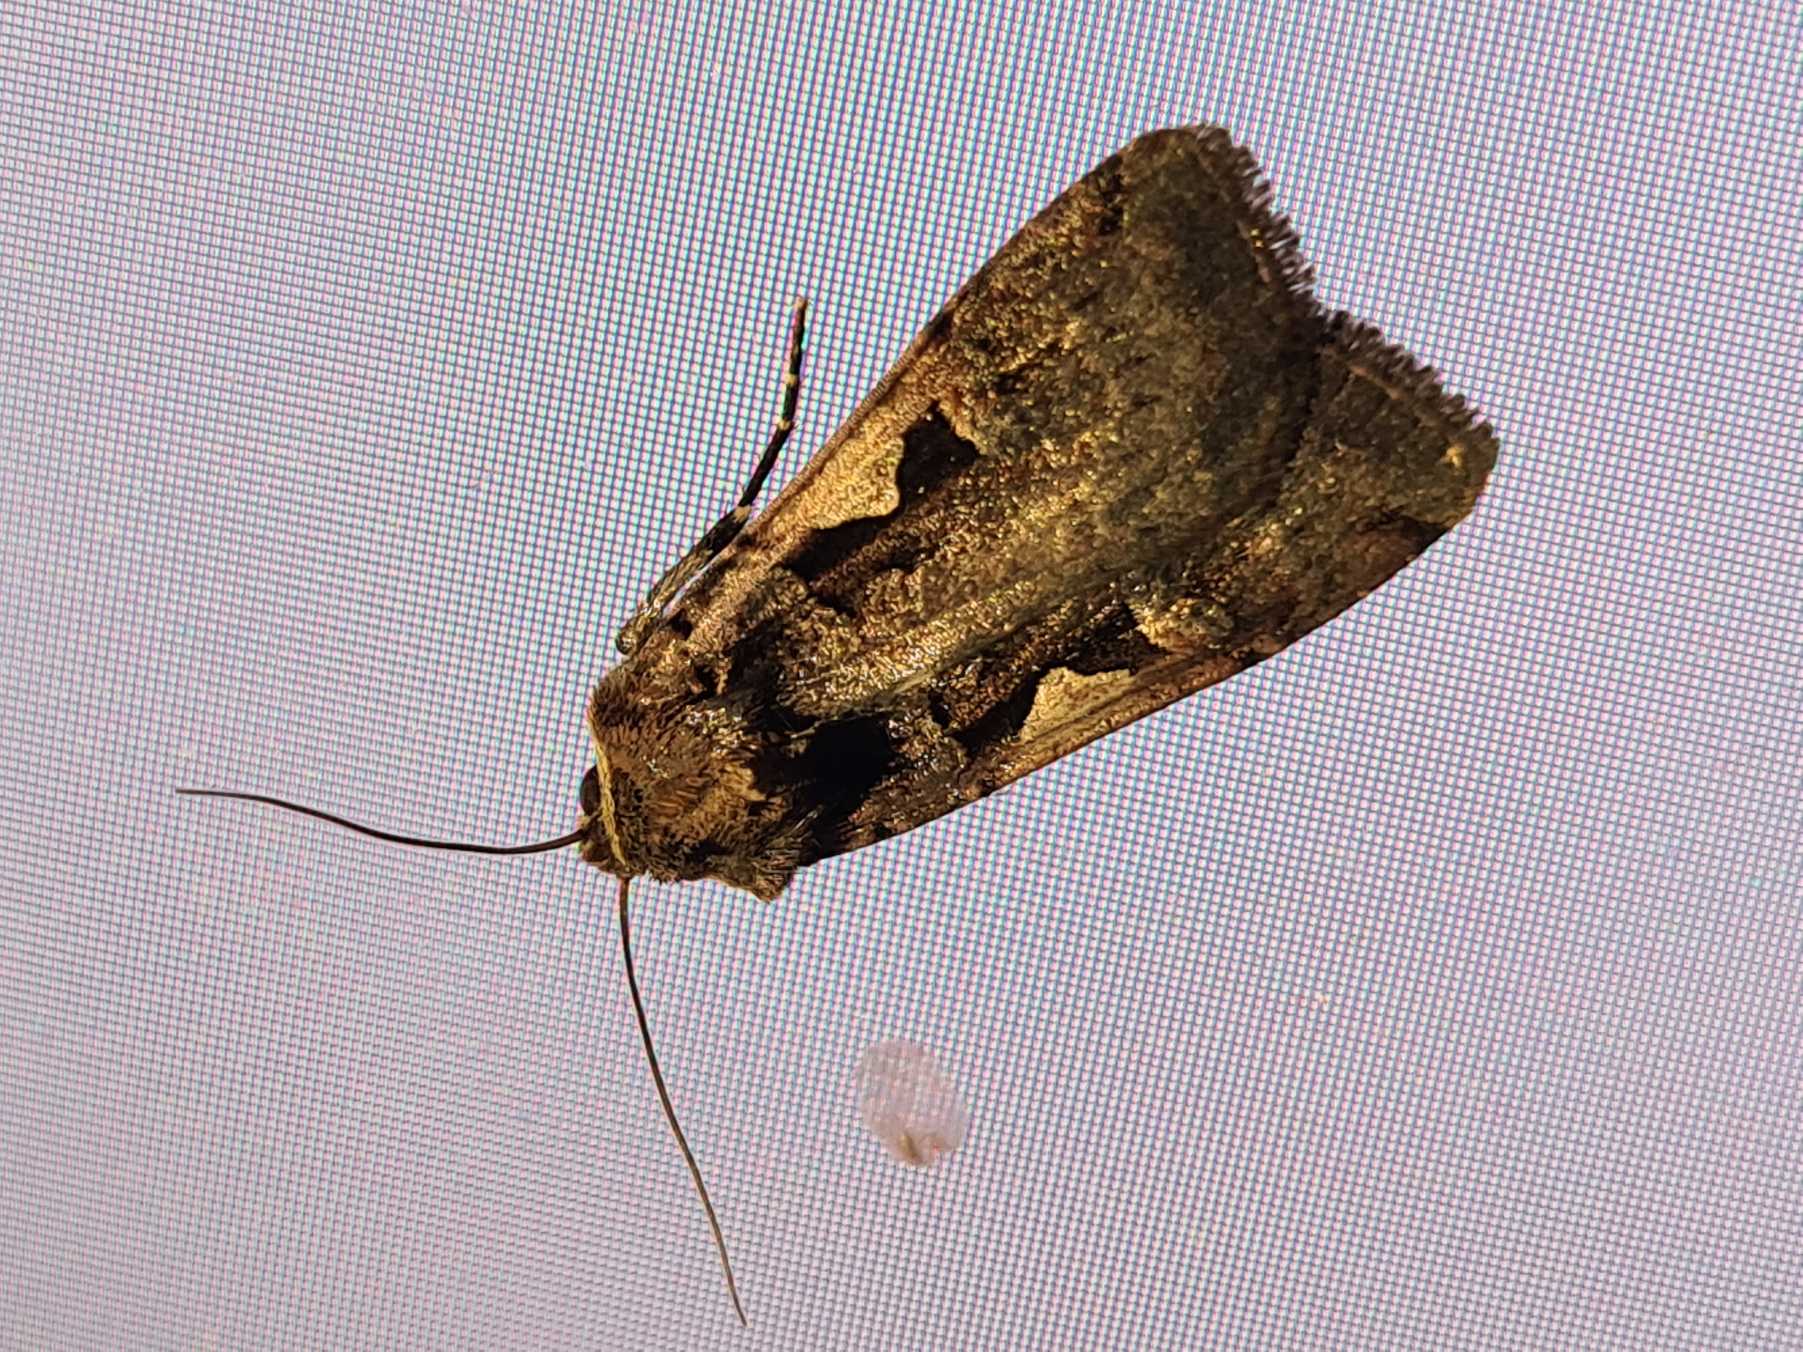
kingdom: Animalia
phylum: Arthropoda
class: Insecta
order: Lepidoptera
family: Noctuidae
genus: Xestia
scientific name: Xestia c-nigrum
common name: Det sorte c
